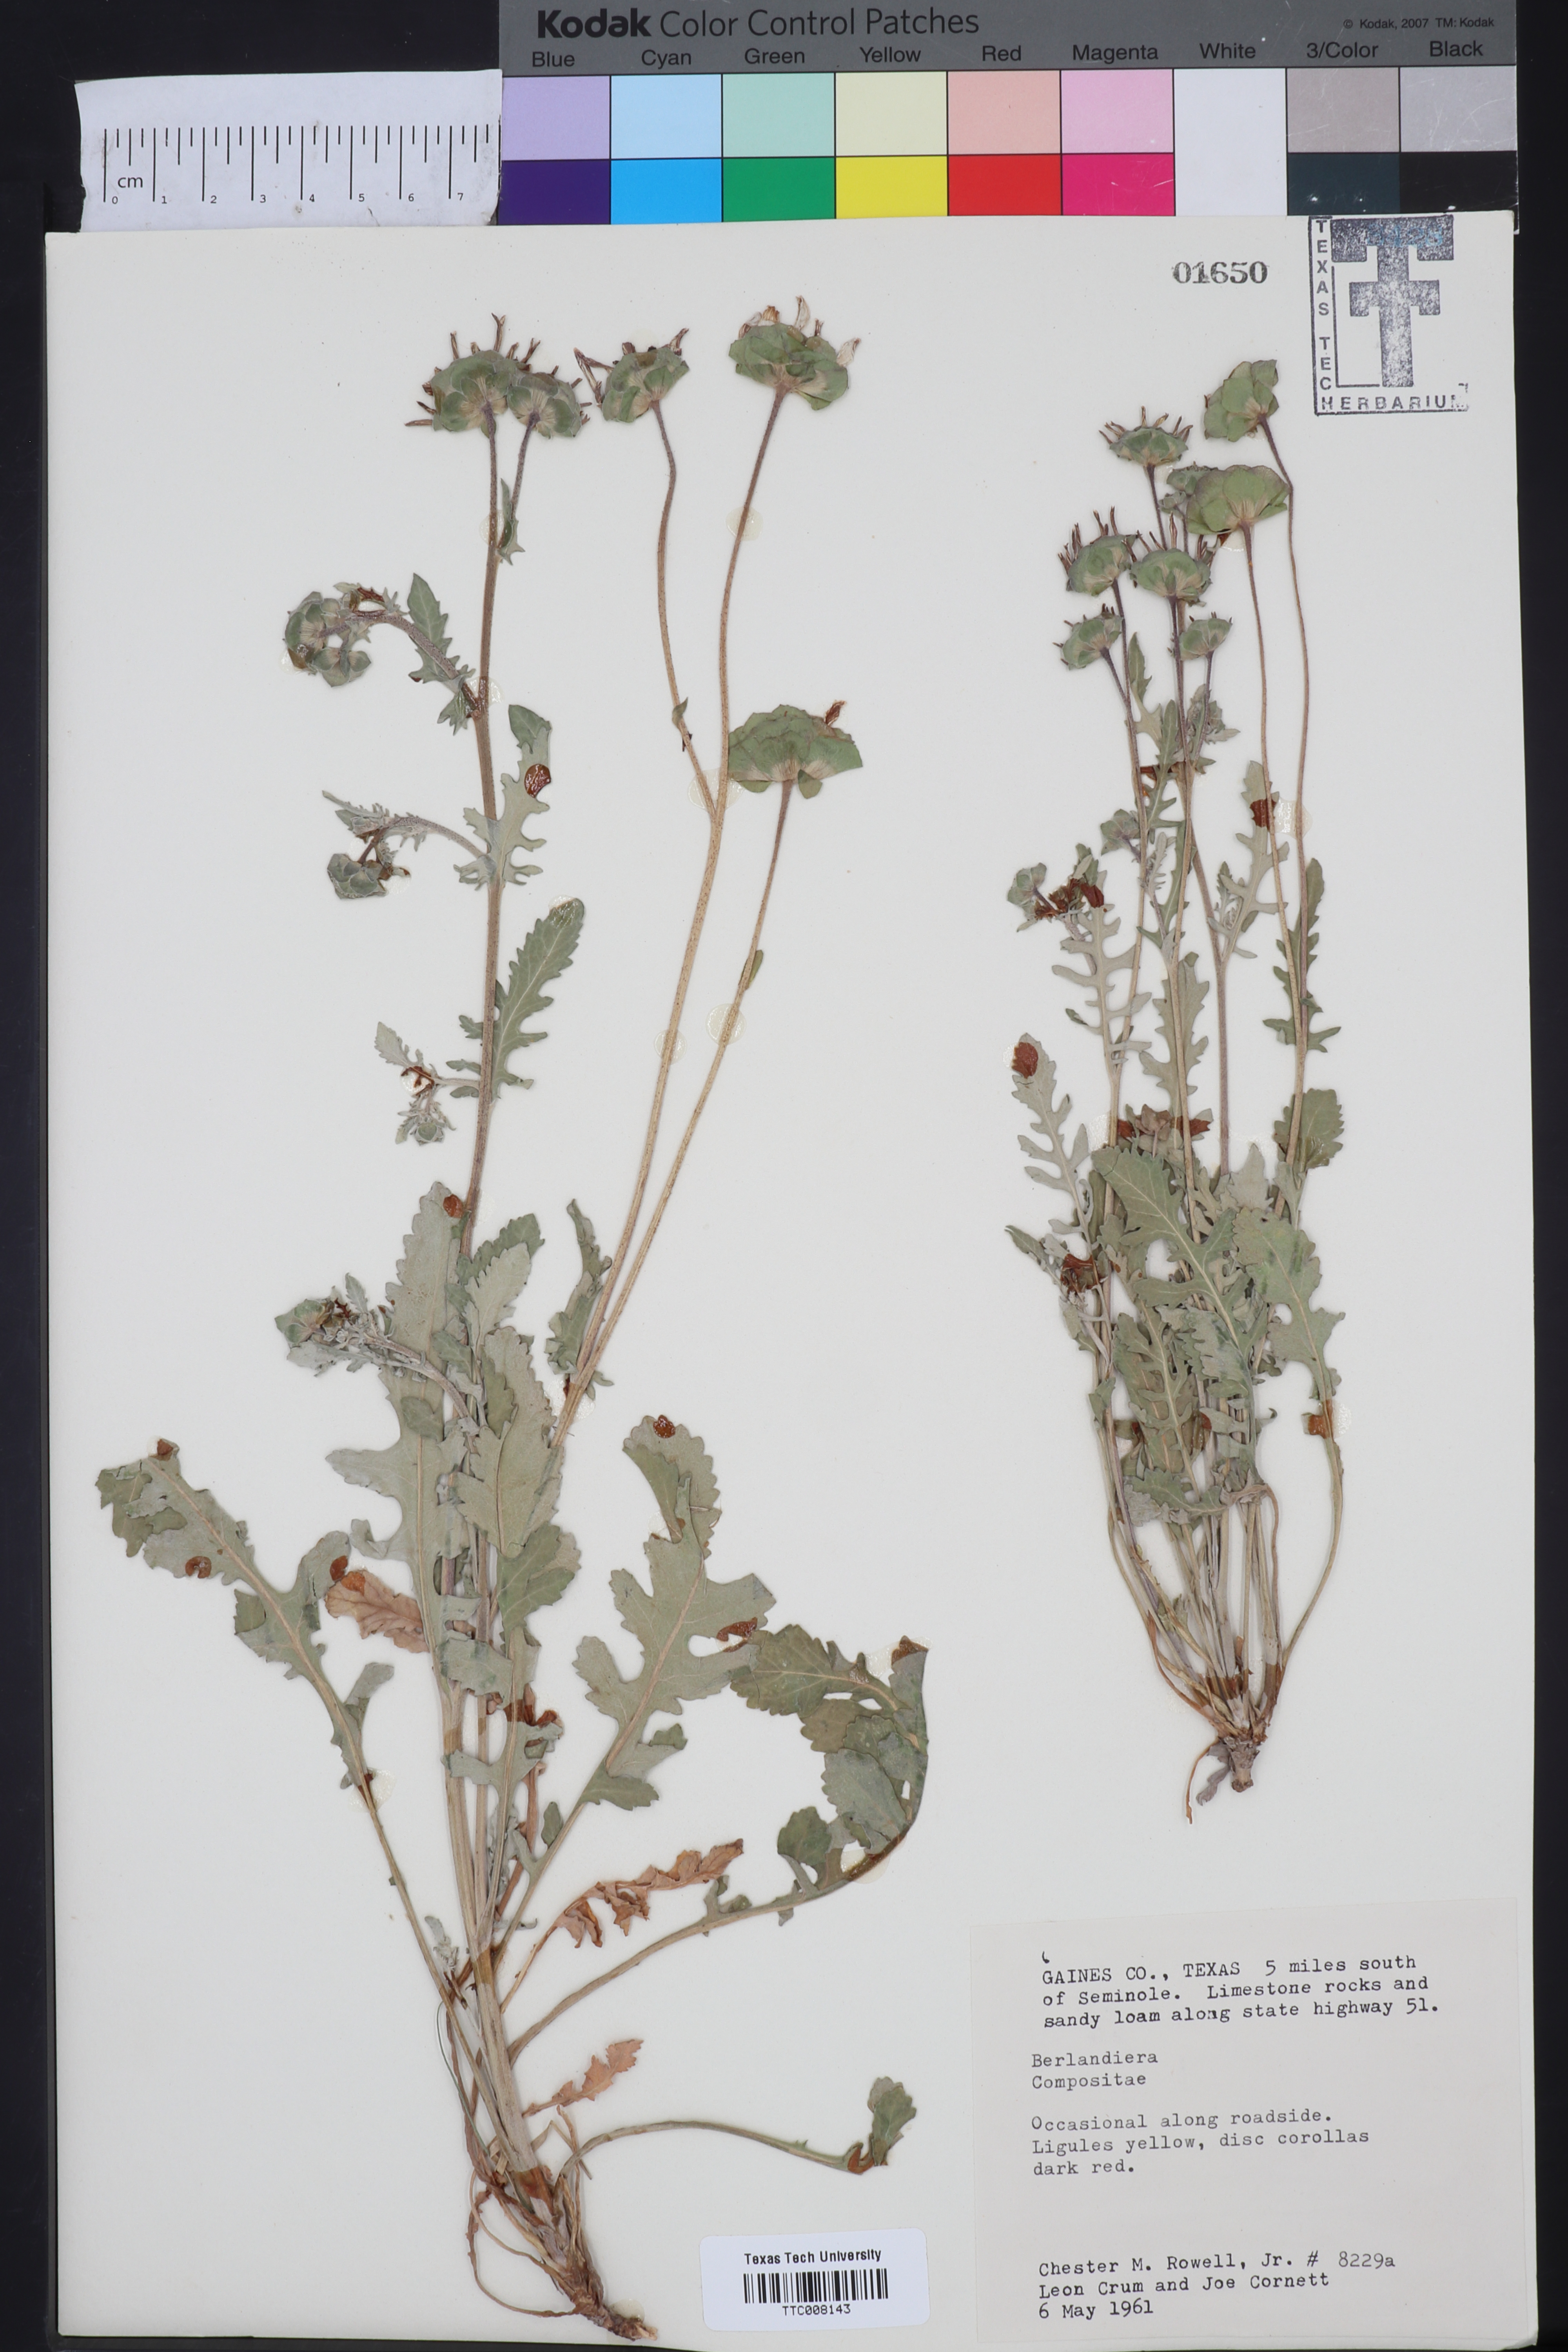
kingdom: Plantae
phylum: Tracheophyta
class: Magnoliopsida
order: Asterales
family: Asteraceae
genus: Berlandiera
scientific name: Berlandiera
